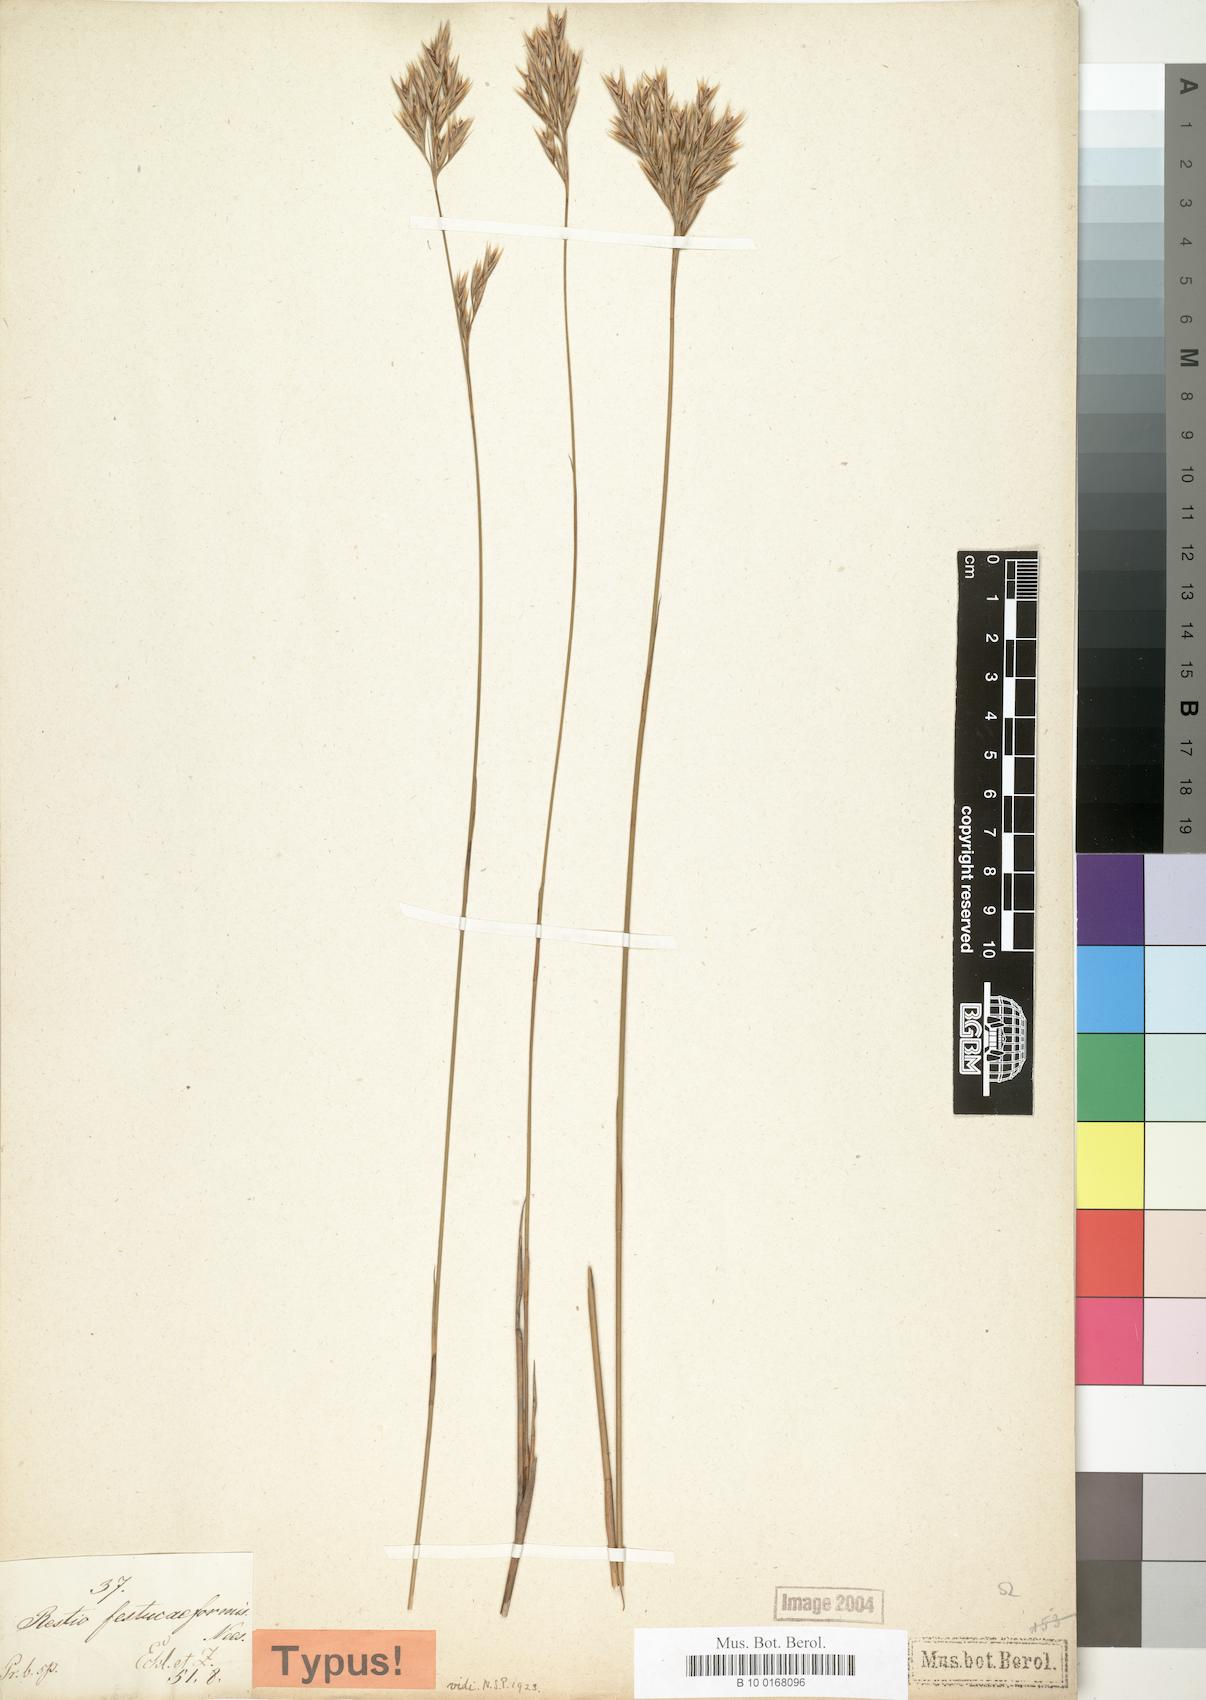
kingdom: Plantae
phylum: Tracheophyta
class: Liliopsida
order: Poales
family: Restionaceae
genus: Restio
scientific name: Restio festuciformis
